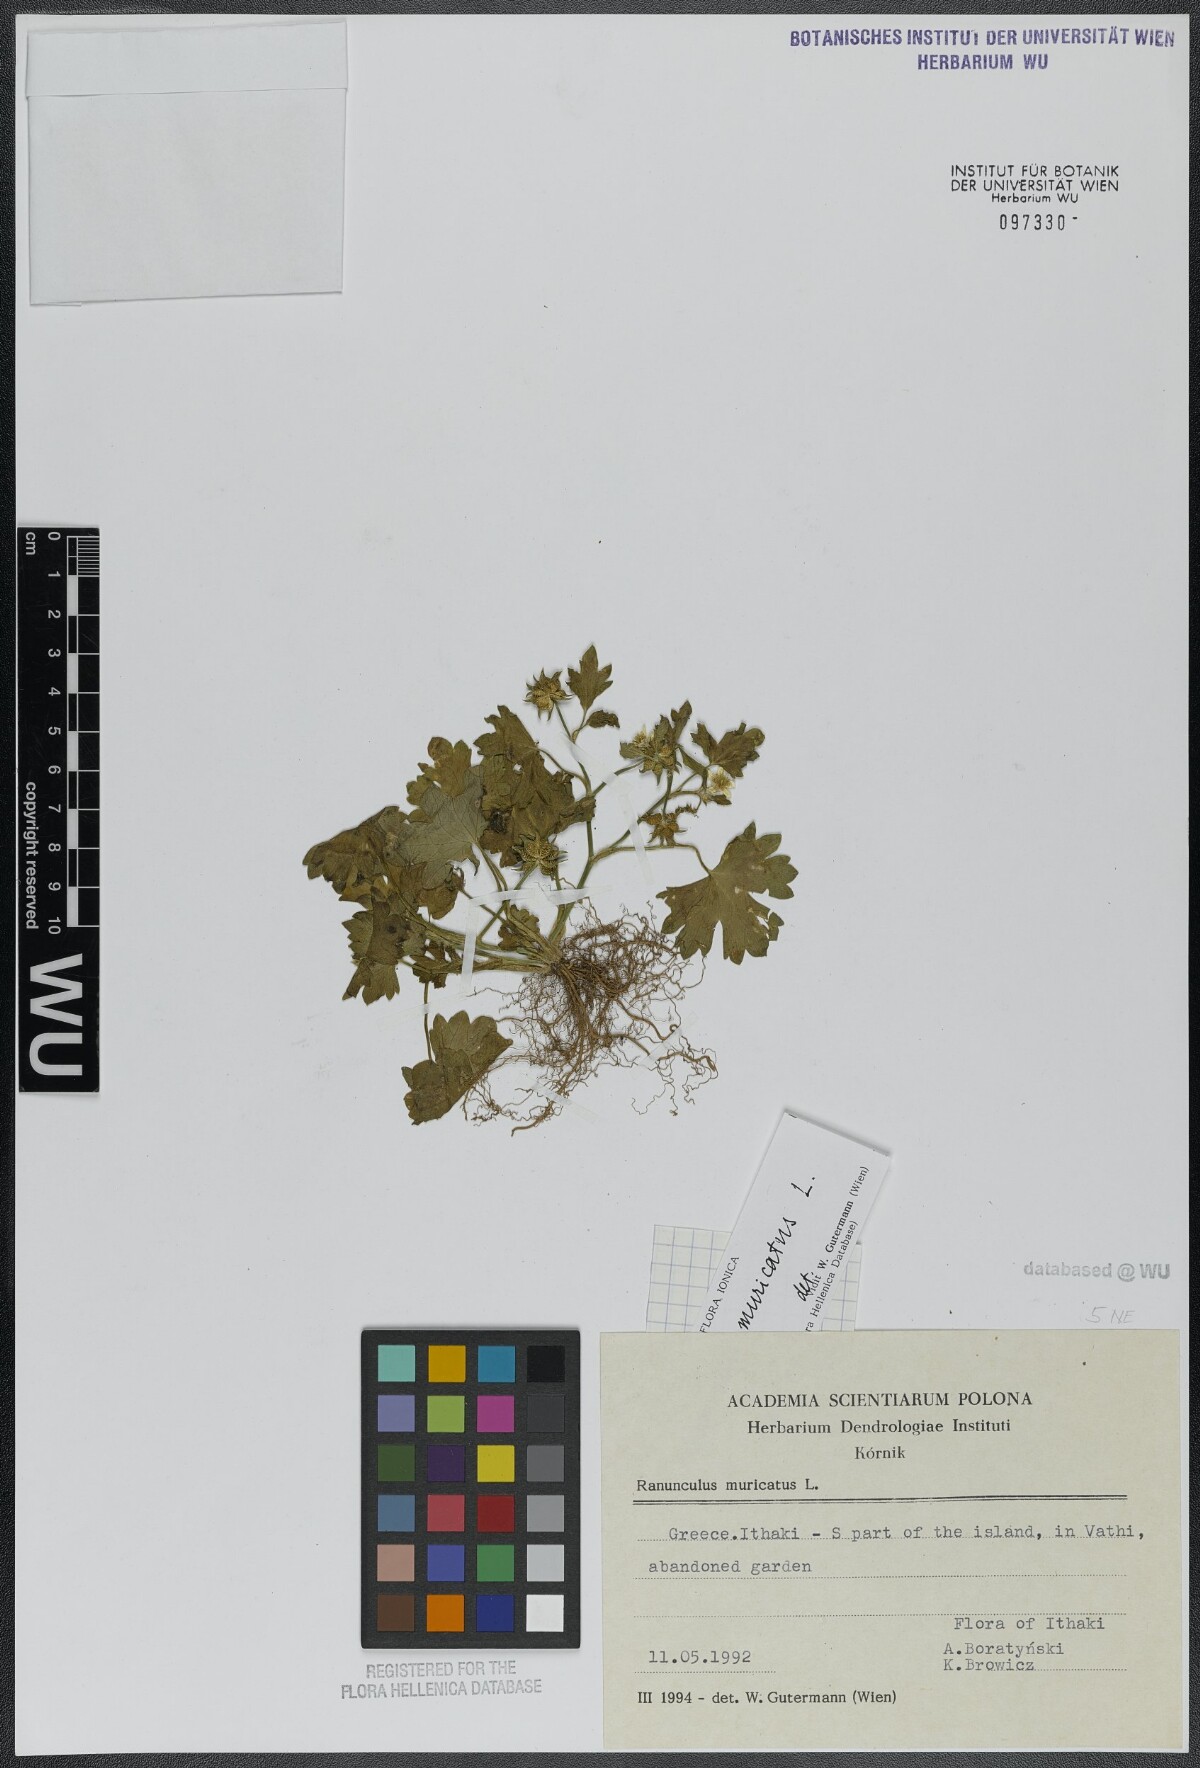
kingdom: Plantae
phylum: Tracheophyta
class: Magnoliopsida
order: Ranunculales
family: Ranunculaceae
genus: Ranunculus
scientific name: Ranunculus muricatus
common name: Rough-fruited buttercup
